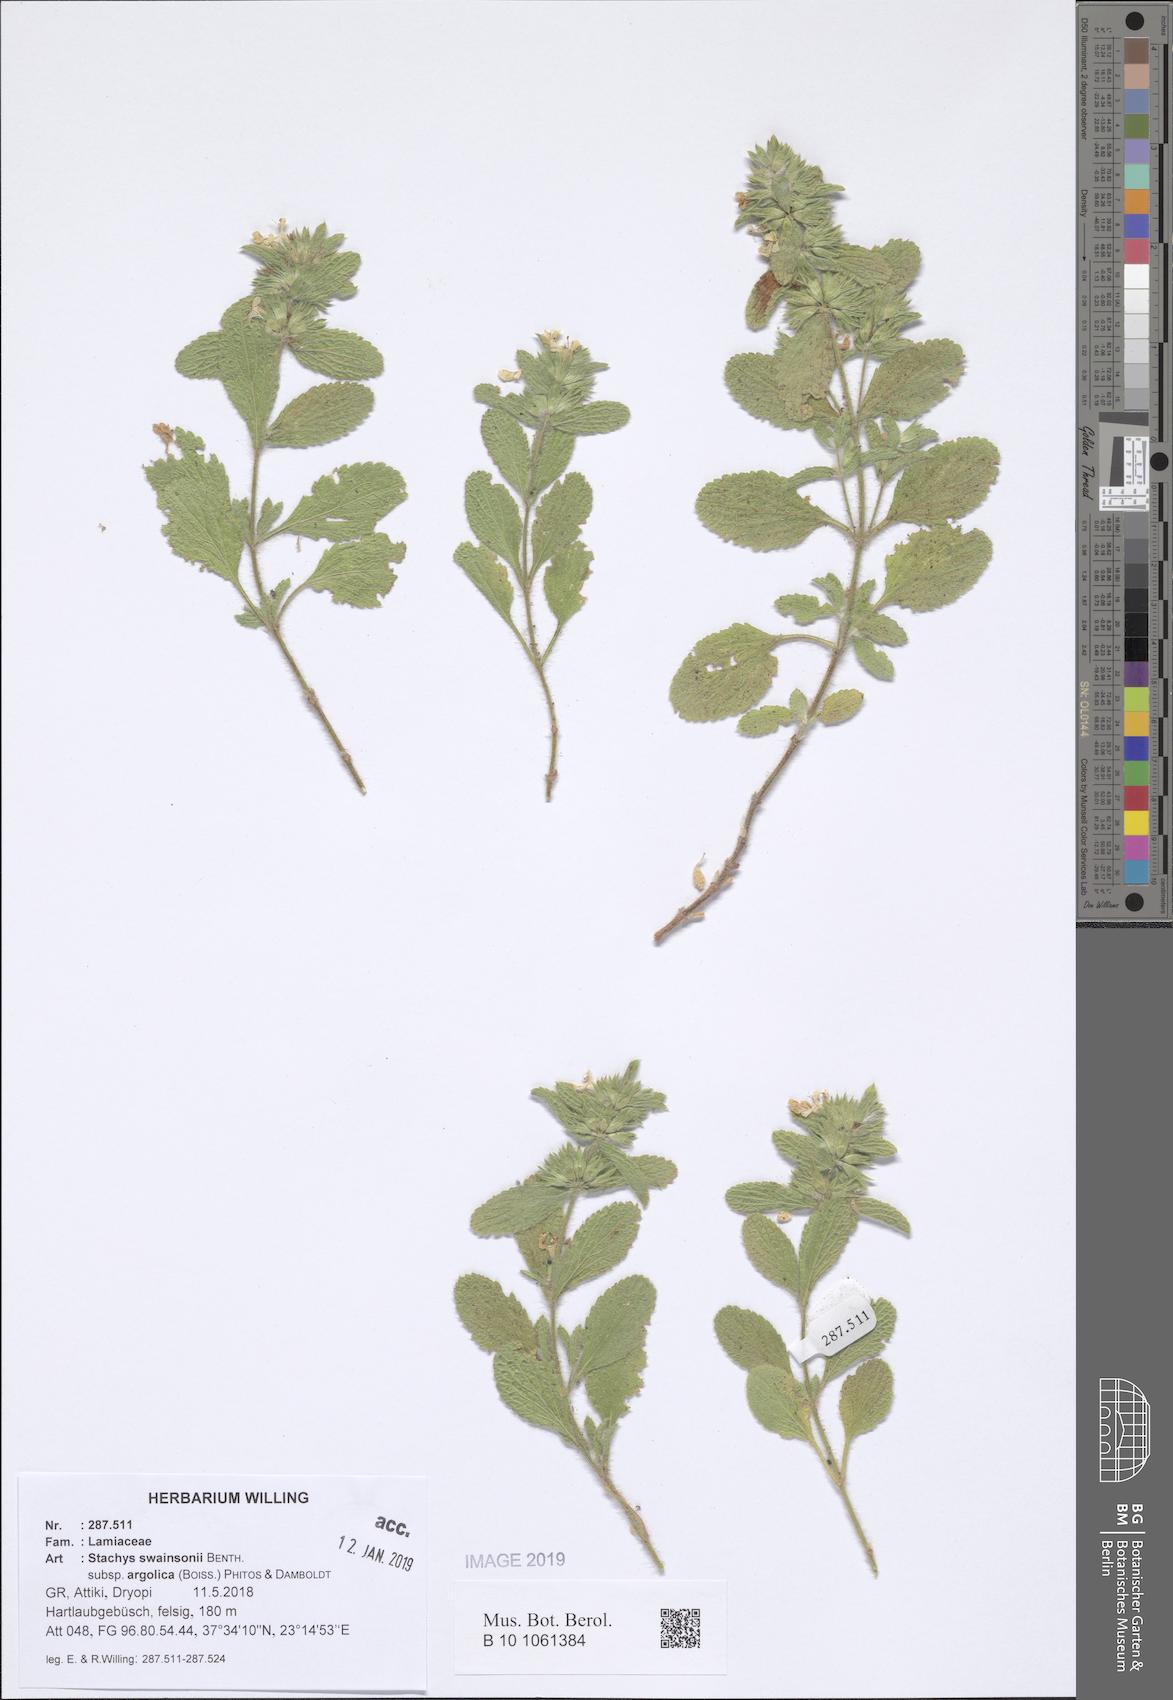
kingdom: Plantae
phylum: Tracheophyta
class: Magnoliopsida
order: Lamiales
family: Lamiaceae
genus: Stachys
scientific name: Stachys swainsonii
